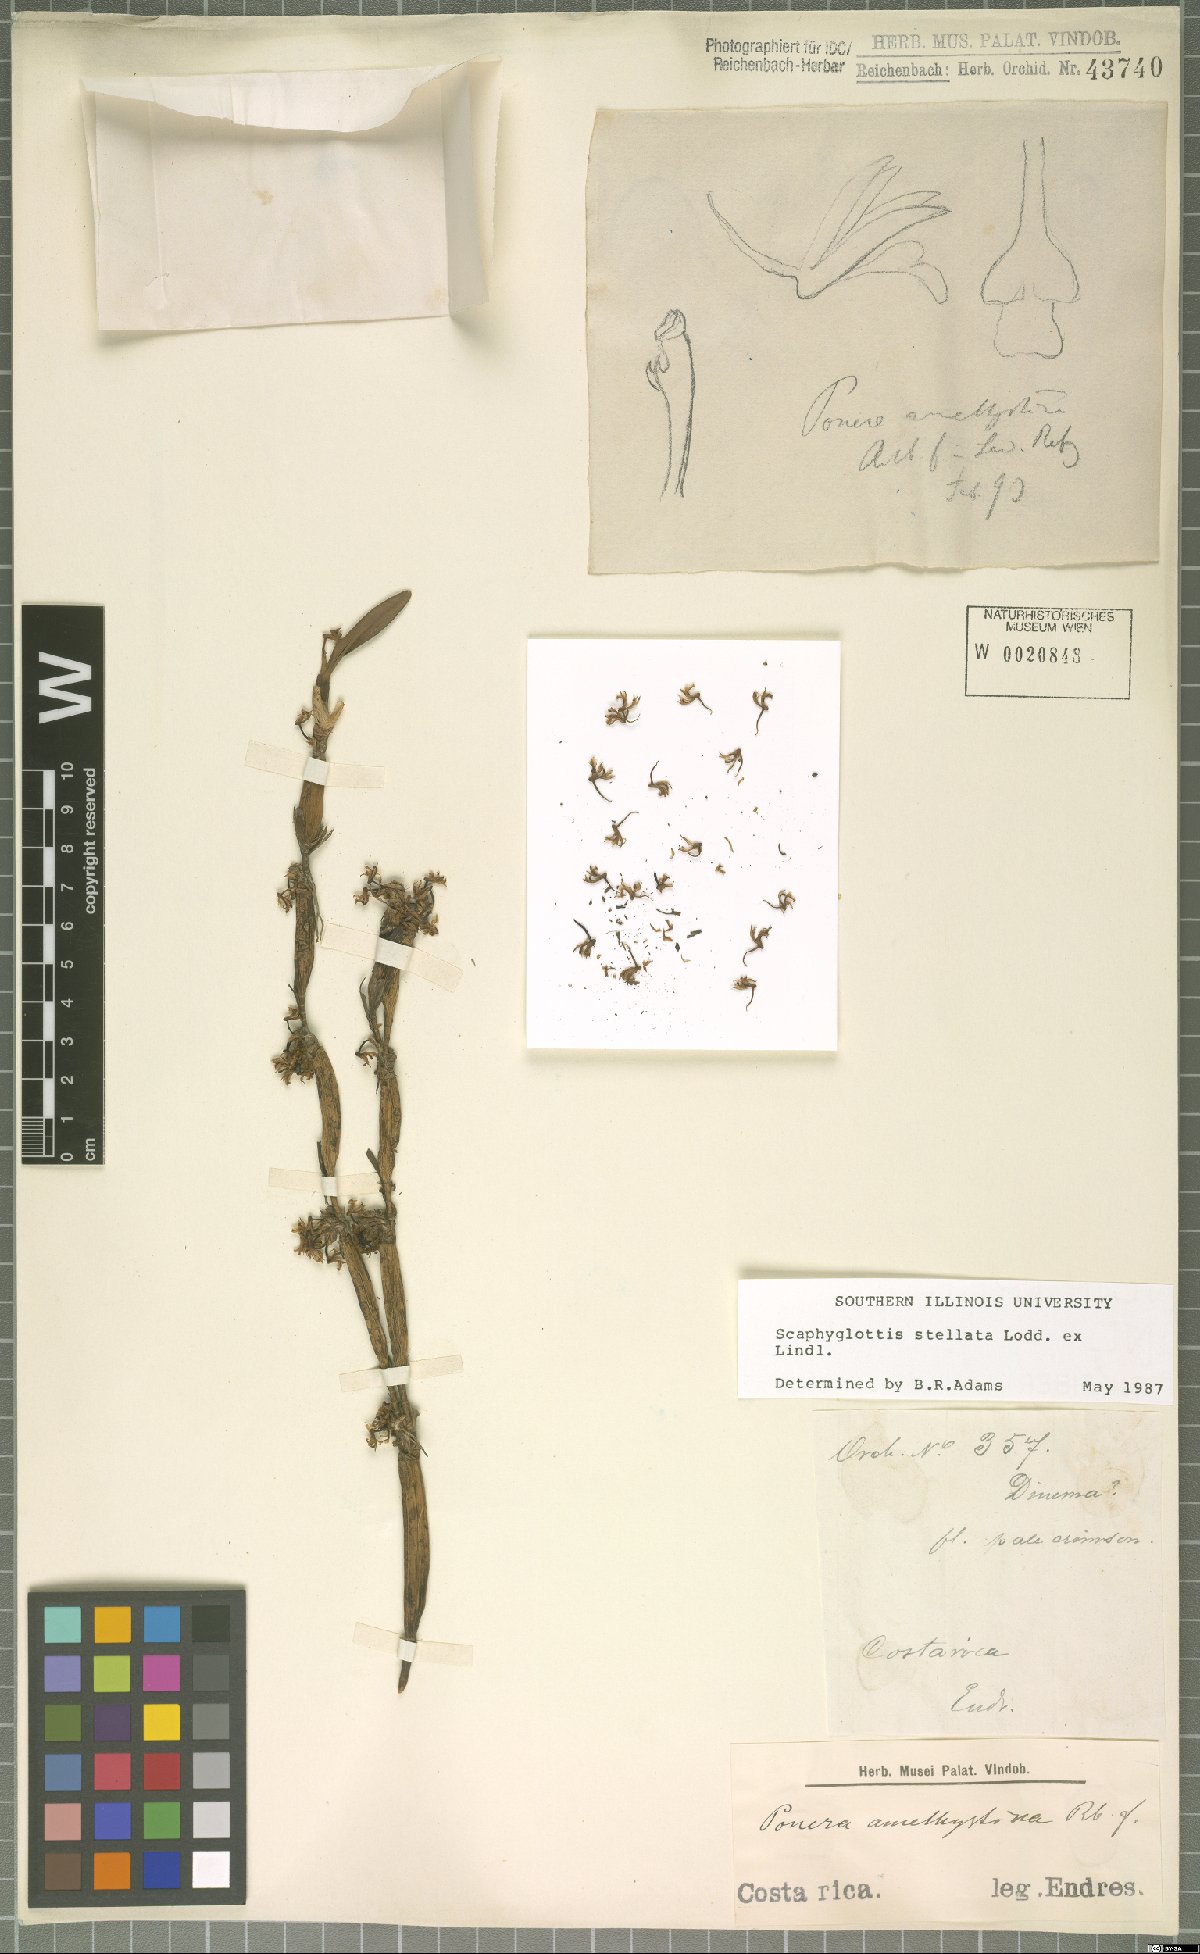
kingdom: Plantae
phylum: Tracheophyta
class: Liliopsida
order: Asparagales
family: Orchidaceae
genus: Scaphyglottis
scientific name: Scaphyglottis stellata
